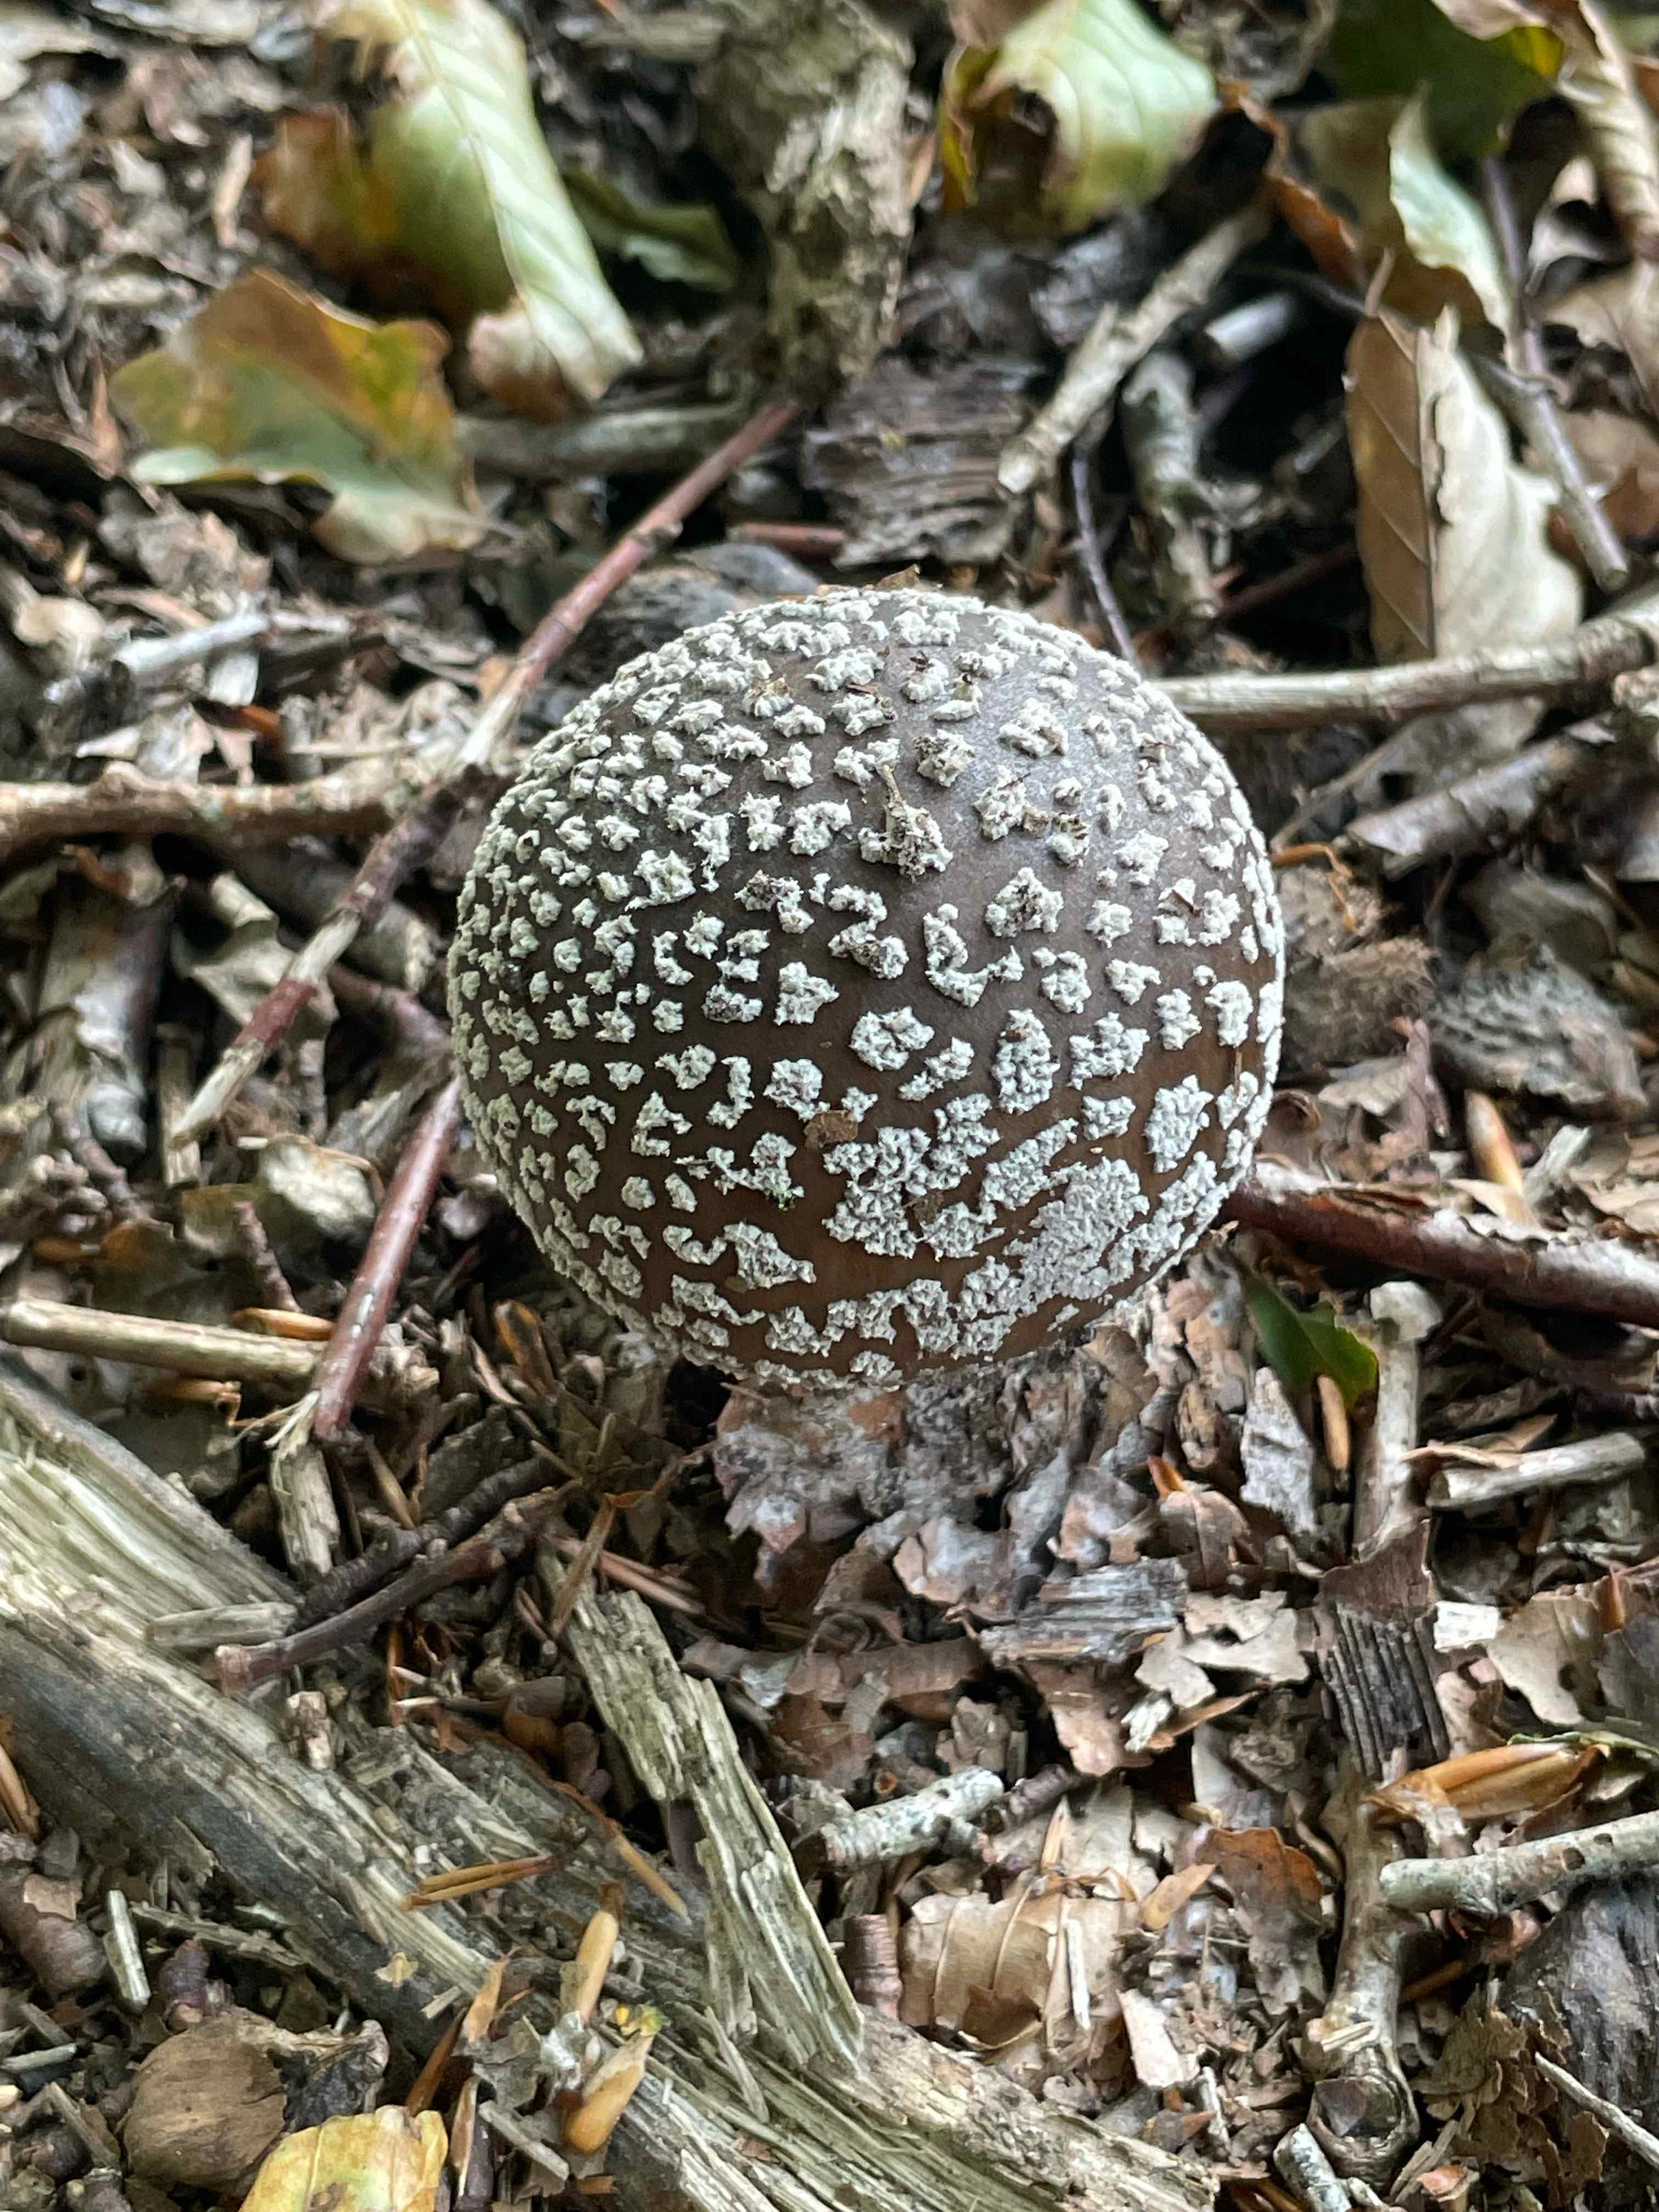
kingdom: Fungi
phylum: Basidiomycota
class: Agaricomycetes
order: Agaricales
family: Amanitaceae
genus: Amanita
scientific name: Amanita
